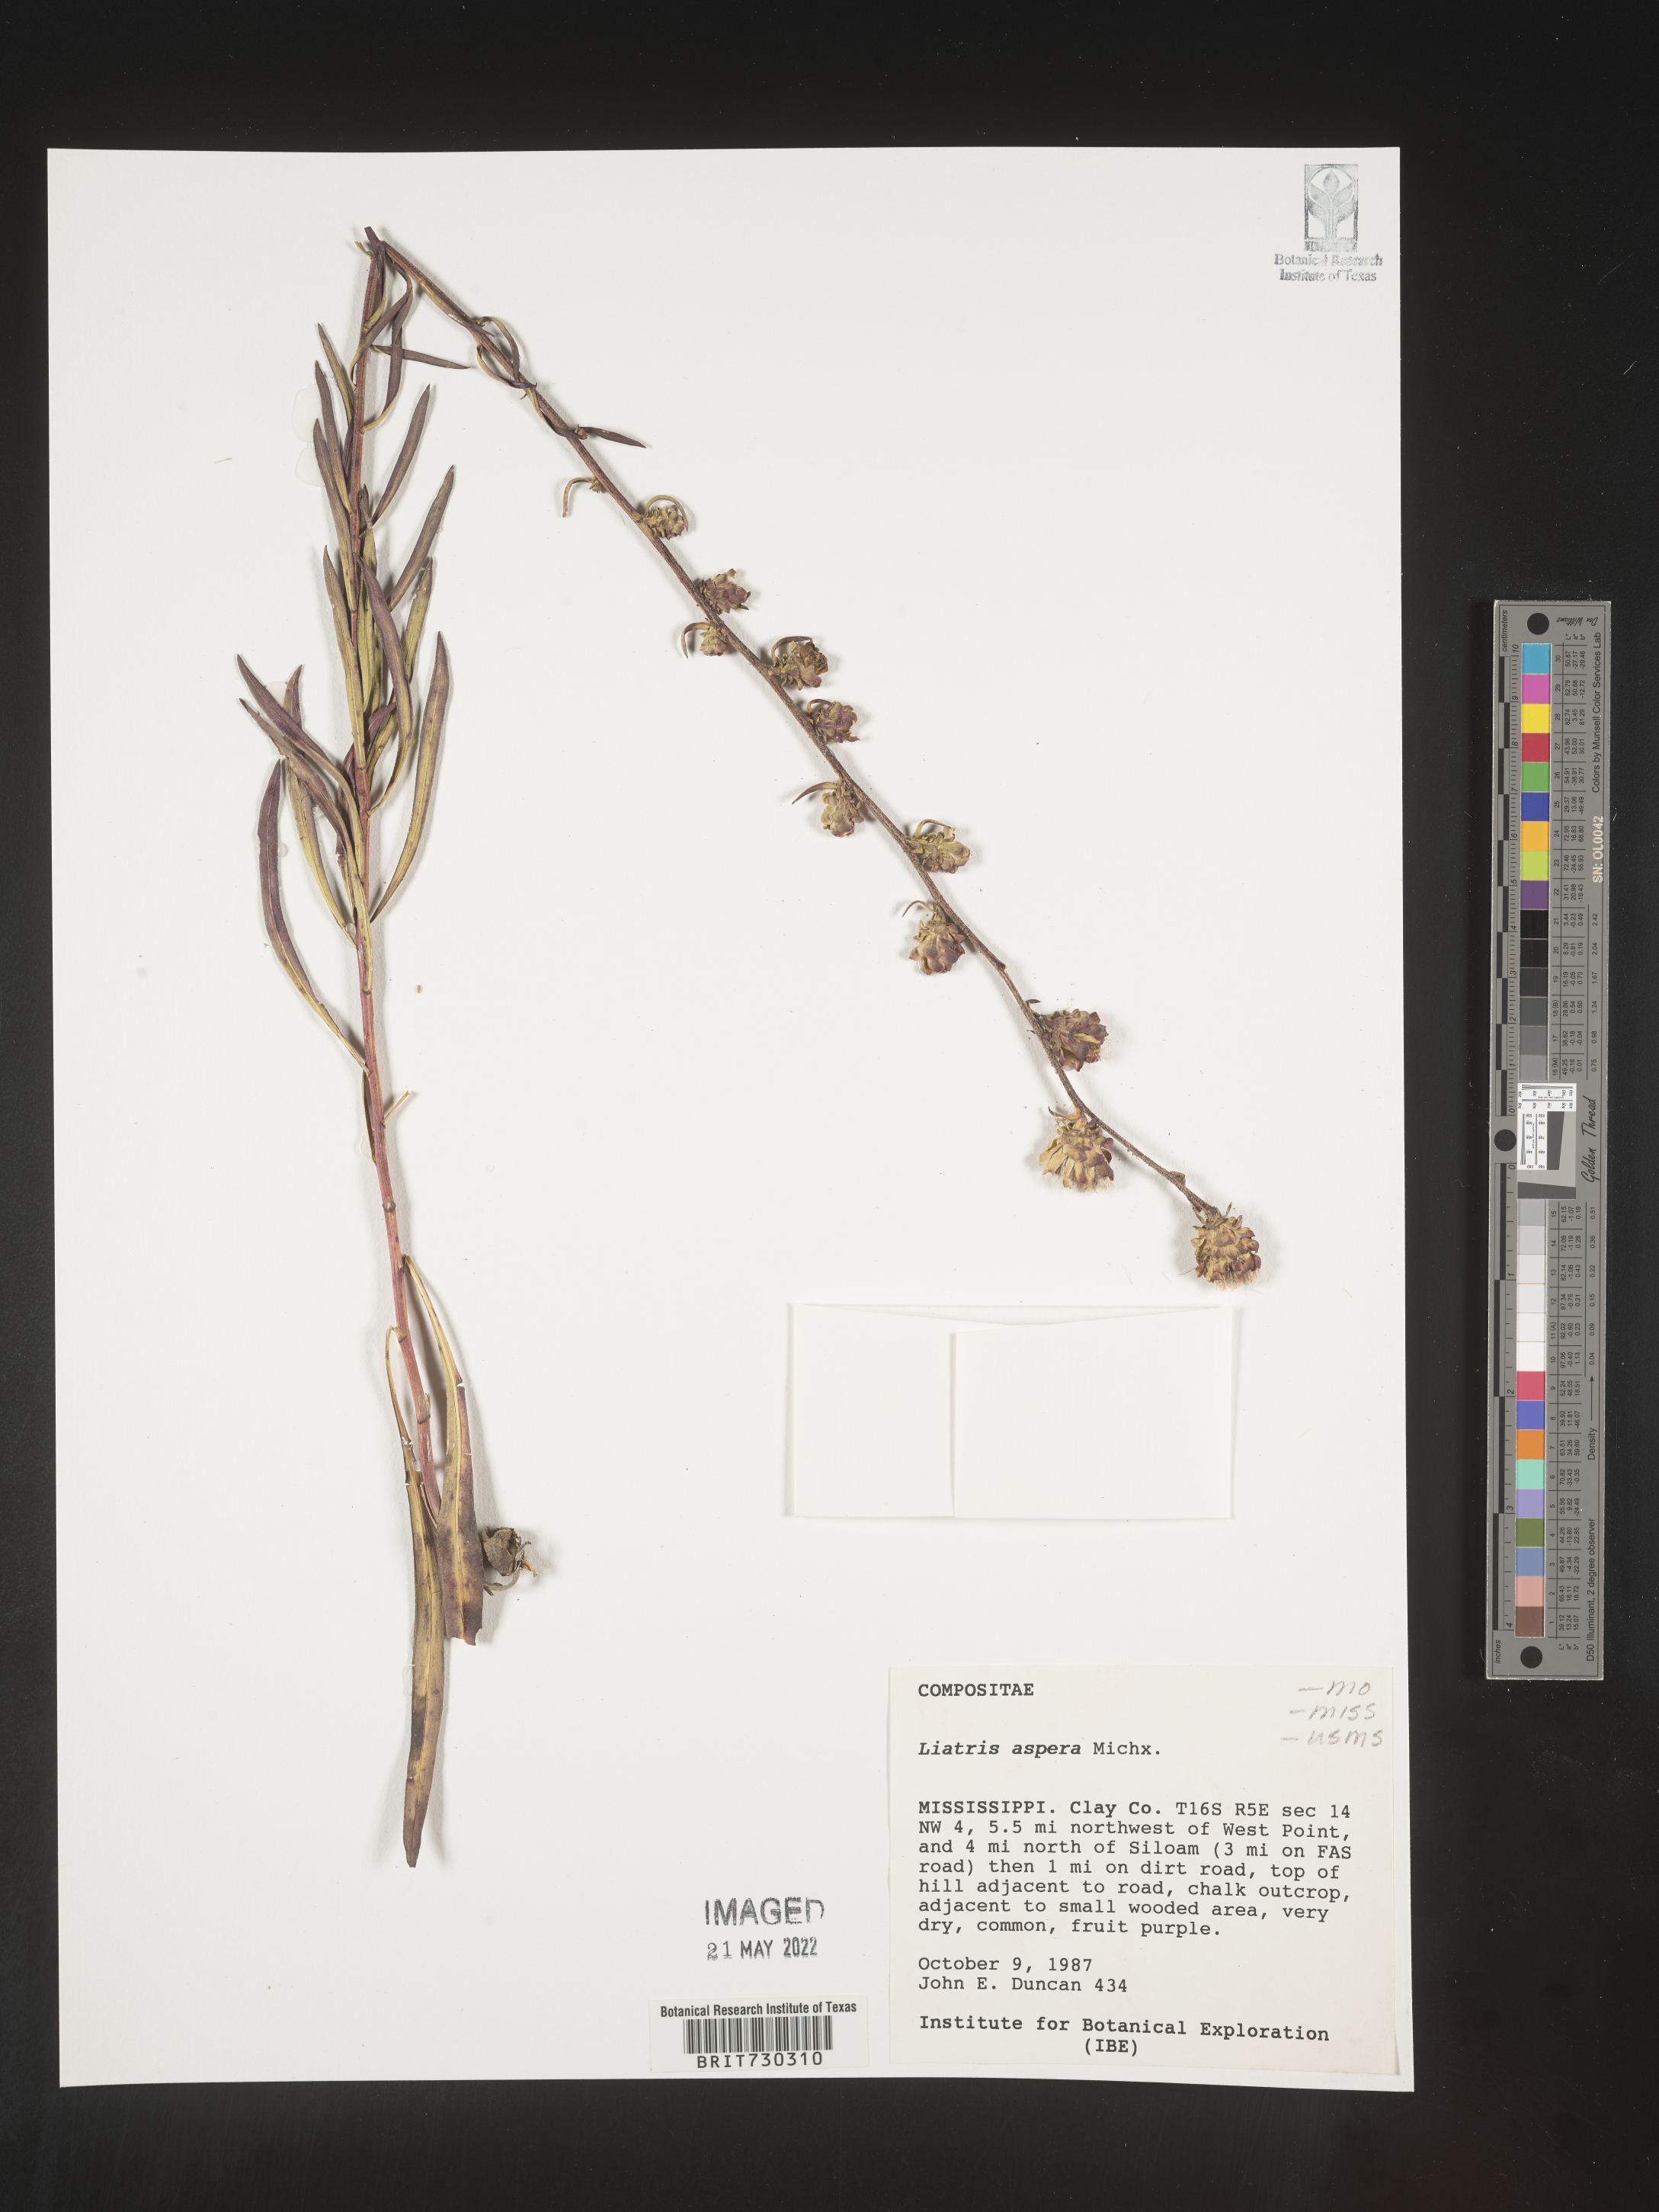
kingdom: Plantae
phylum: Tracheophyta
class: Magnoliopsida
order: Asterales
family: Asteraceae
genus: Liatris
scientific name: Liatris aspera
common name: Lacerate blazing-star
